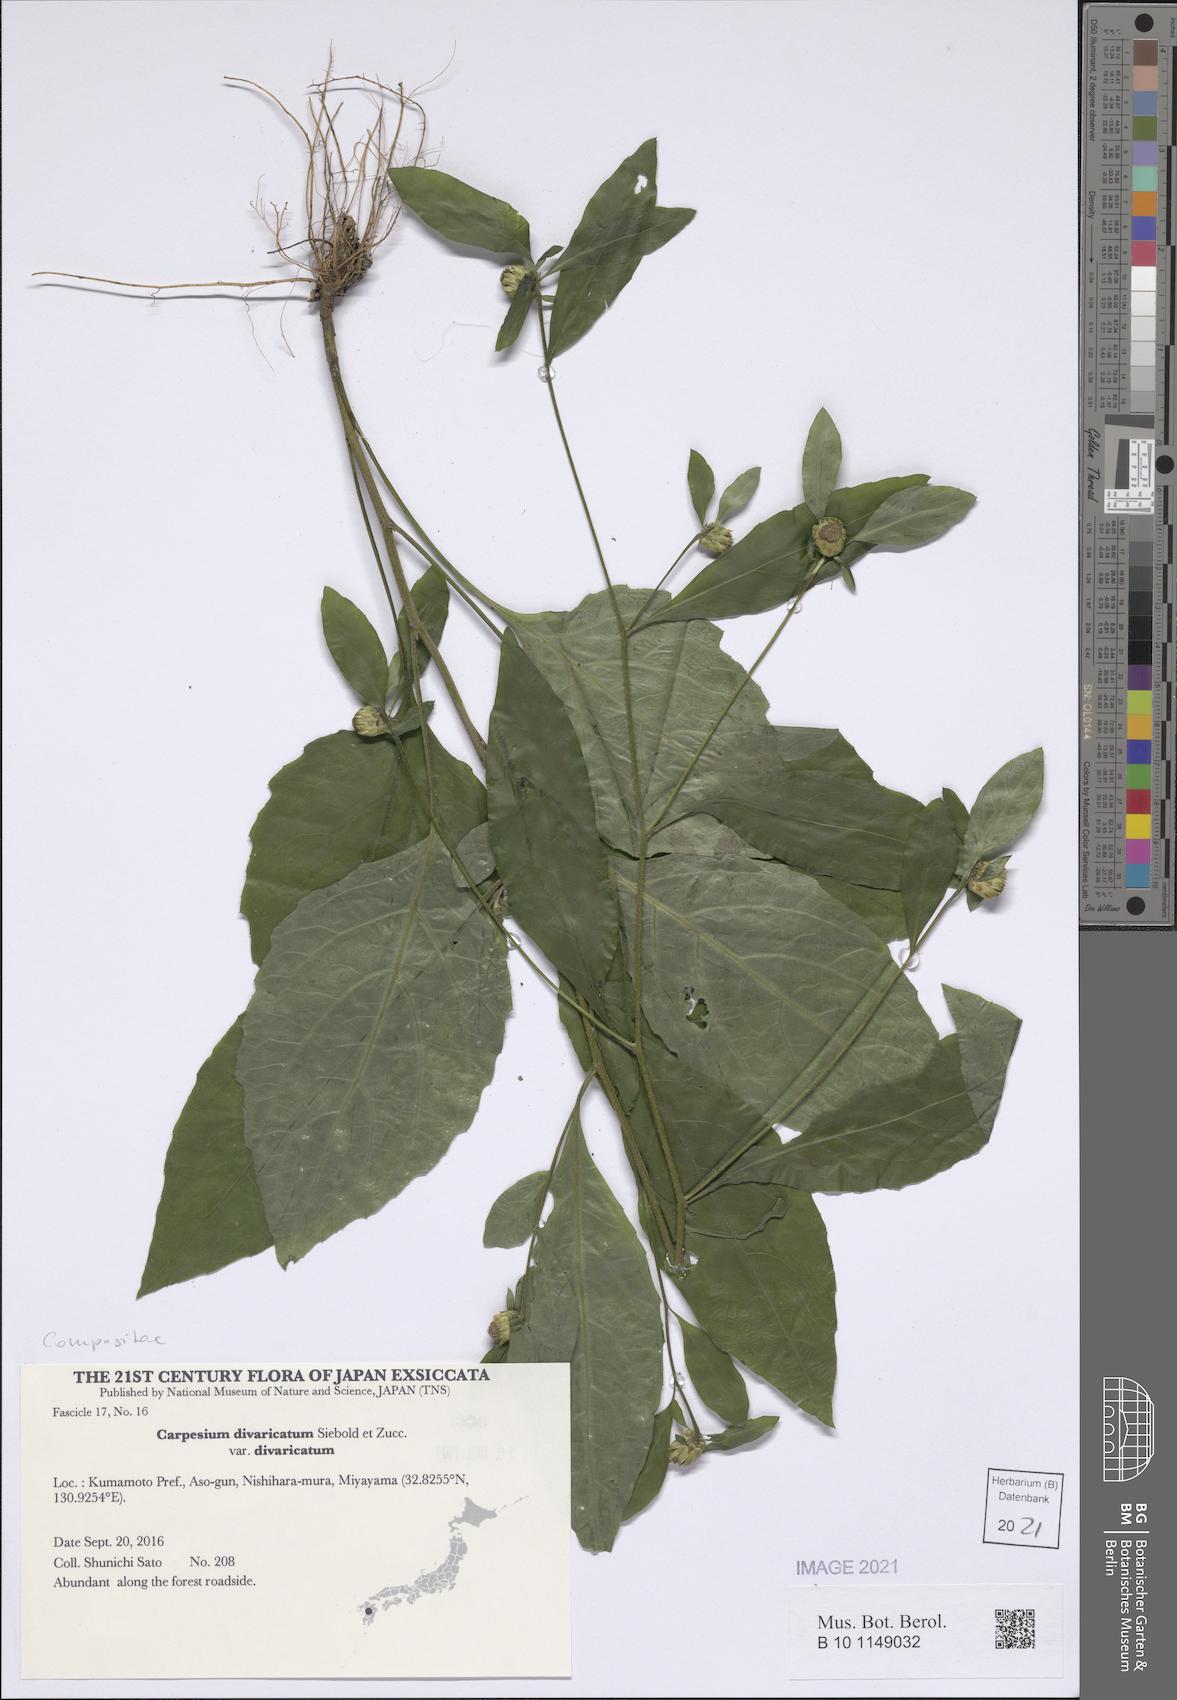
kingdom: Plantae
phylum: Tracheophyta
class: Magnoliopsida
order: Asterales
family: Asteraceae
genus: Carpesium
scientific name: Carpesium divaricatum
